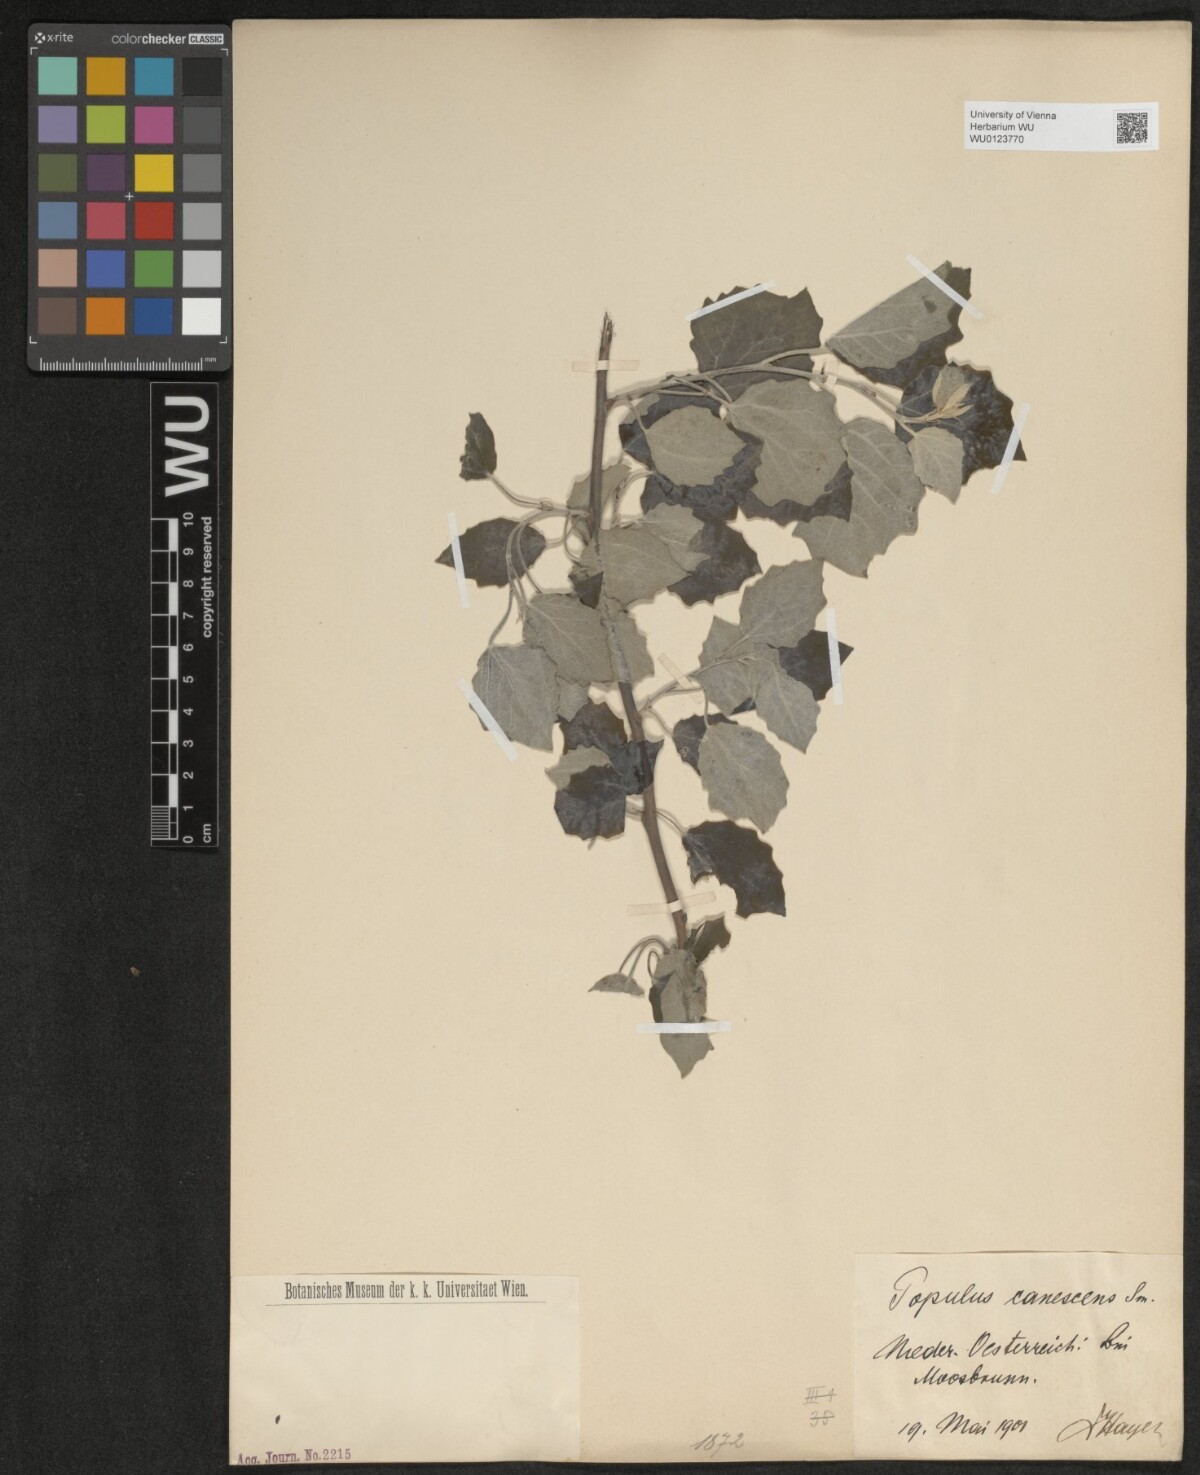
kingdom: Plantae
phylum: Tracheophyta
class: Magnoliopsida
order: Malpighiales
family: Salicaceae
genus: Populus
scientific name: Populus alba
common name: White poplar
